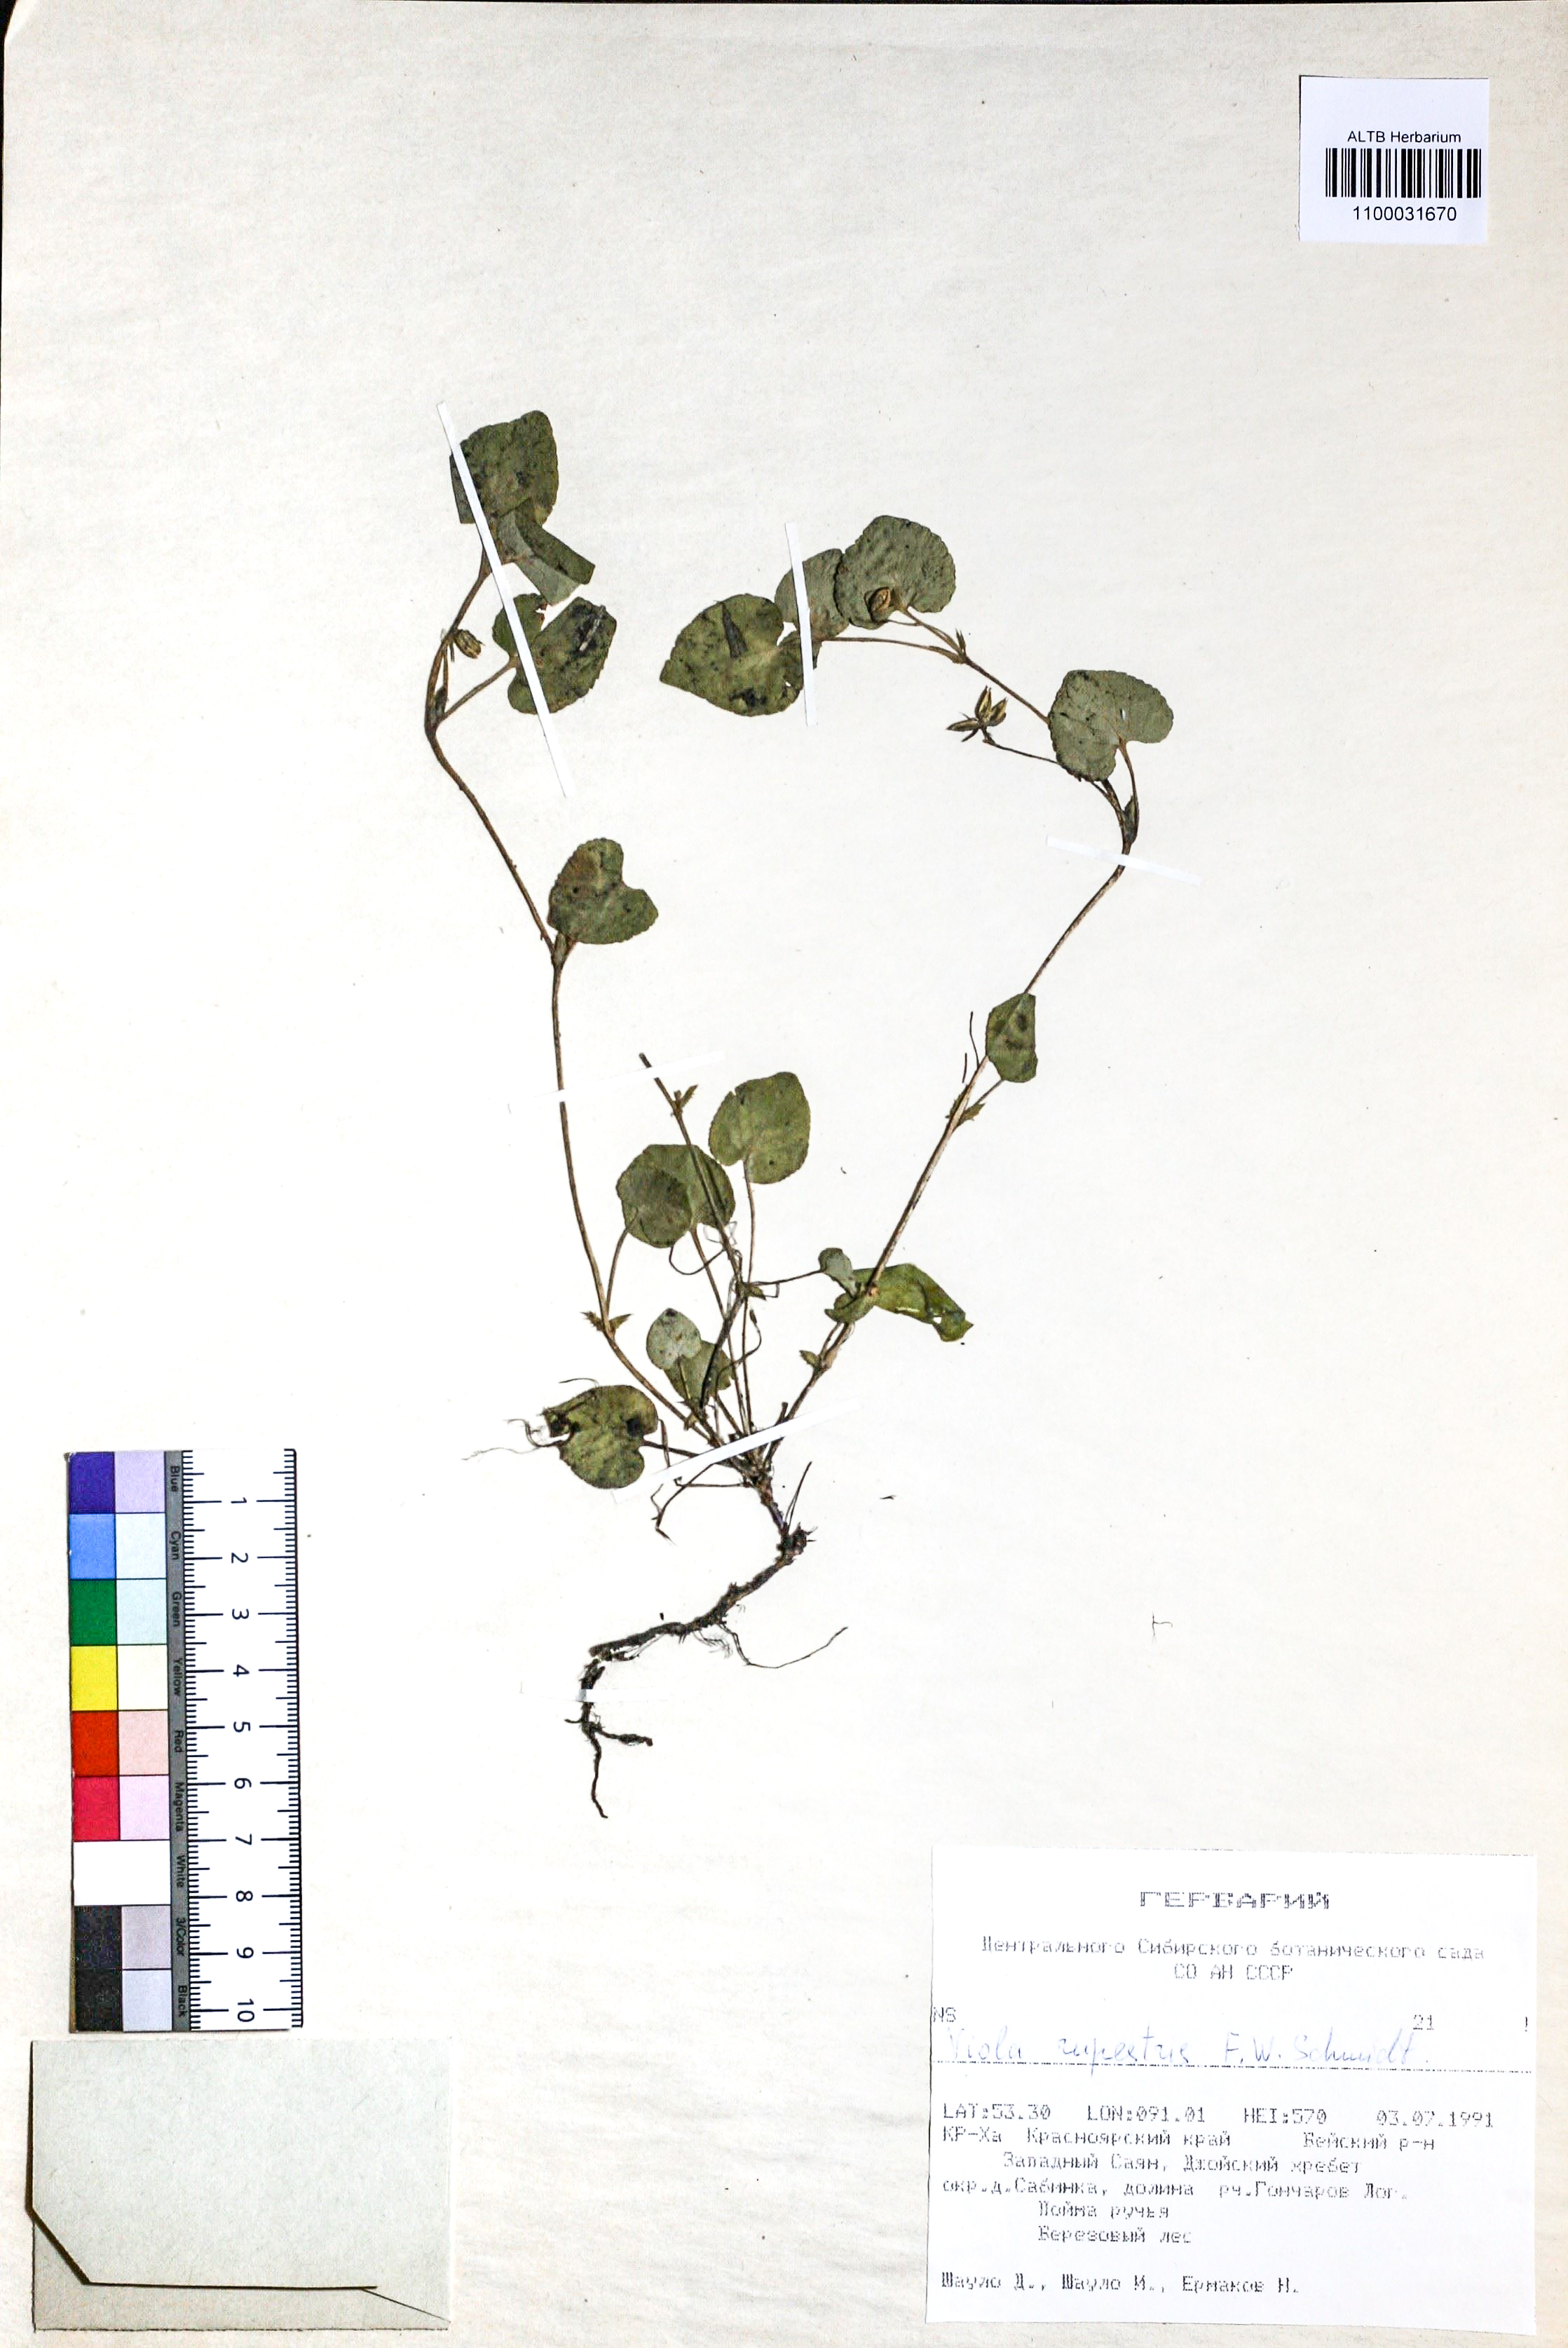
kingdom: Plantae
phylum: Tracheophyta
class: Magnoliopsida
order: Malpighiales
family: Violaceae
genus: Viola
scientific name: Viola rupestris
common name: Teesdale violet
